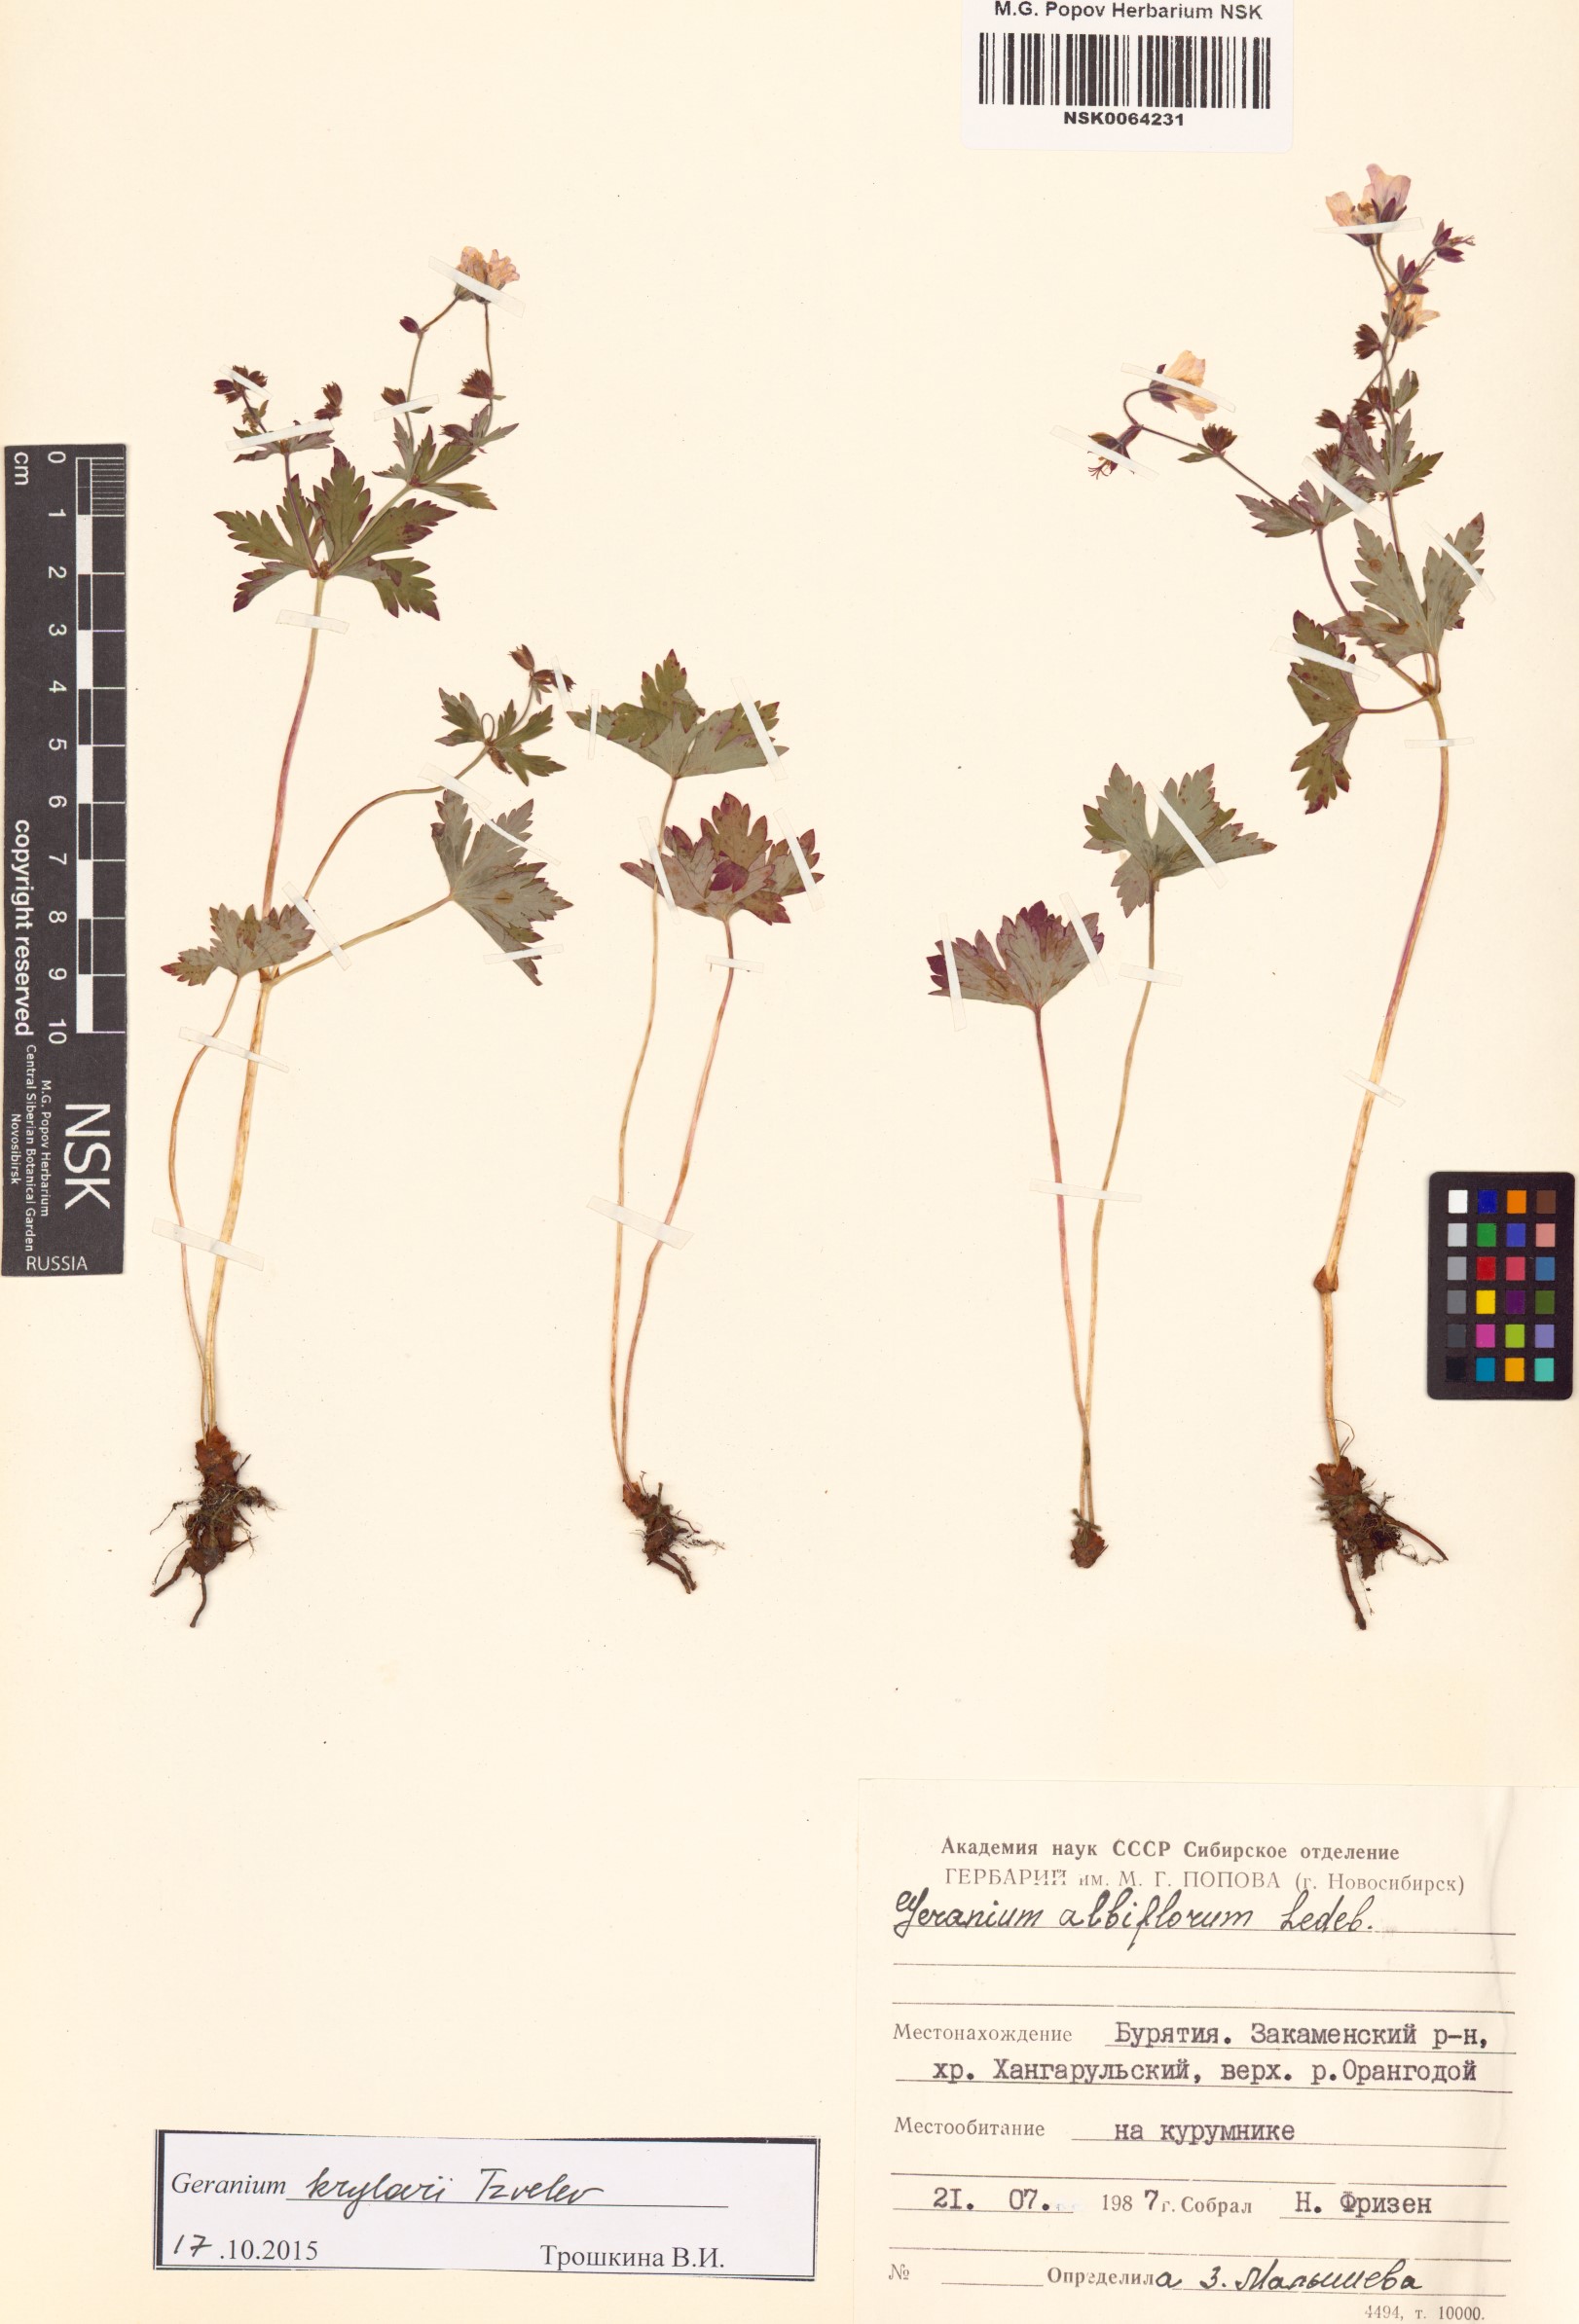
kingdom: Plantae
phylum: Tracheophyta
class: Magnoliopsida
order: Geraniales
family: Geraniaceae
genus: Geranium
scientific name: Geranium sylvaticum
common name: Wood crane's-bill
